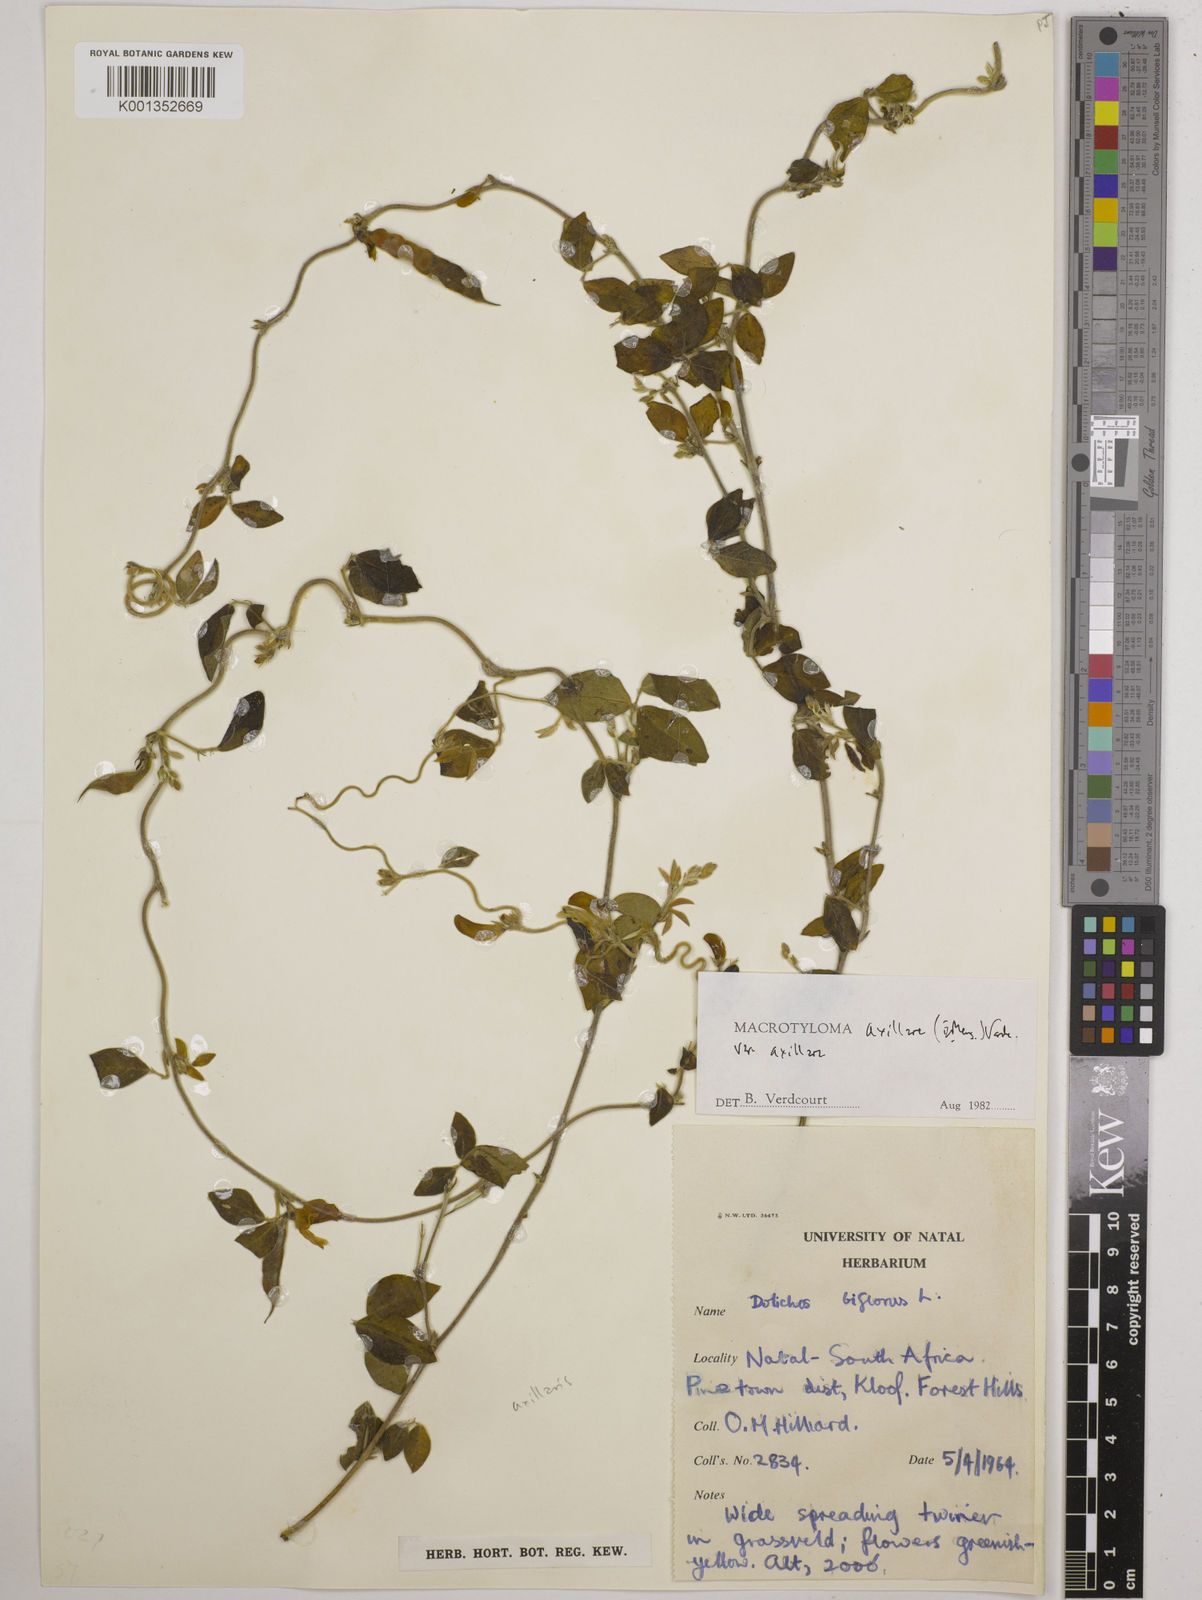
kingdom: Plantae
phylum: Tracheophyta
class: Magnoliopsida
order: Fabales
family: Fabaceae
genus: Macrotyloma
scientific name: Macrotyloma axillare
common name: Perennial horsegram
